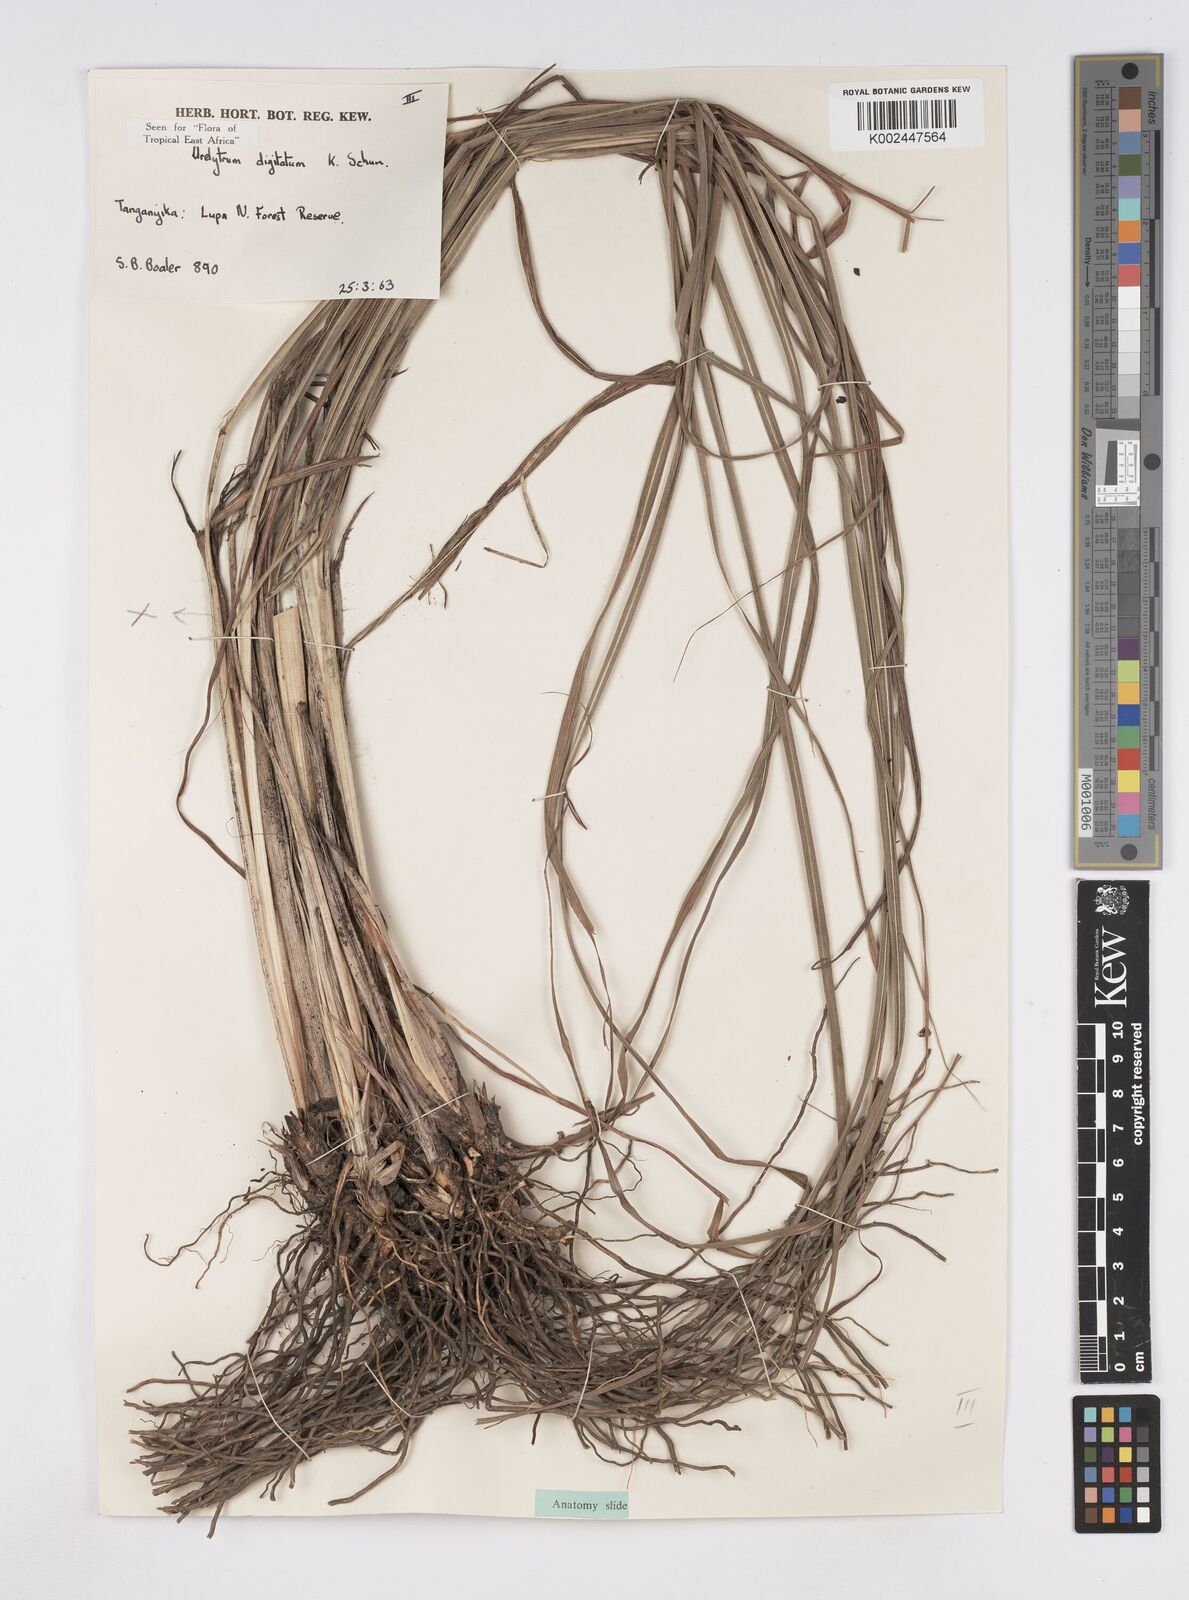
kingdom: Plantae
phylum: Tracheophyta
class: Liliopsida
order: Poales
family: Poaceae
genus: Urelytrum
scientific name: Urelytrum digitatum
